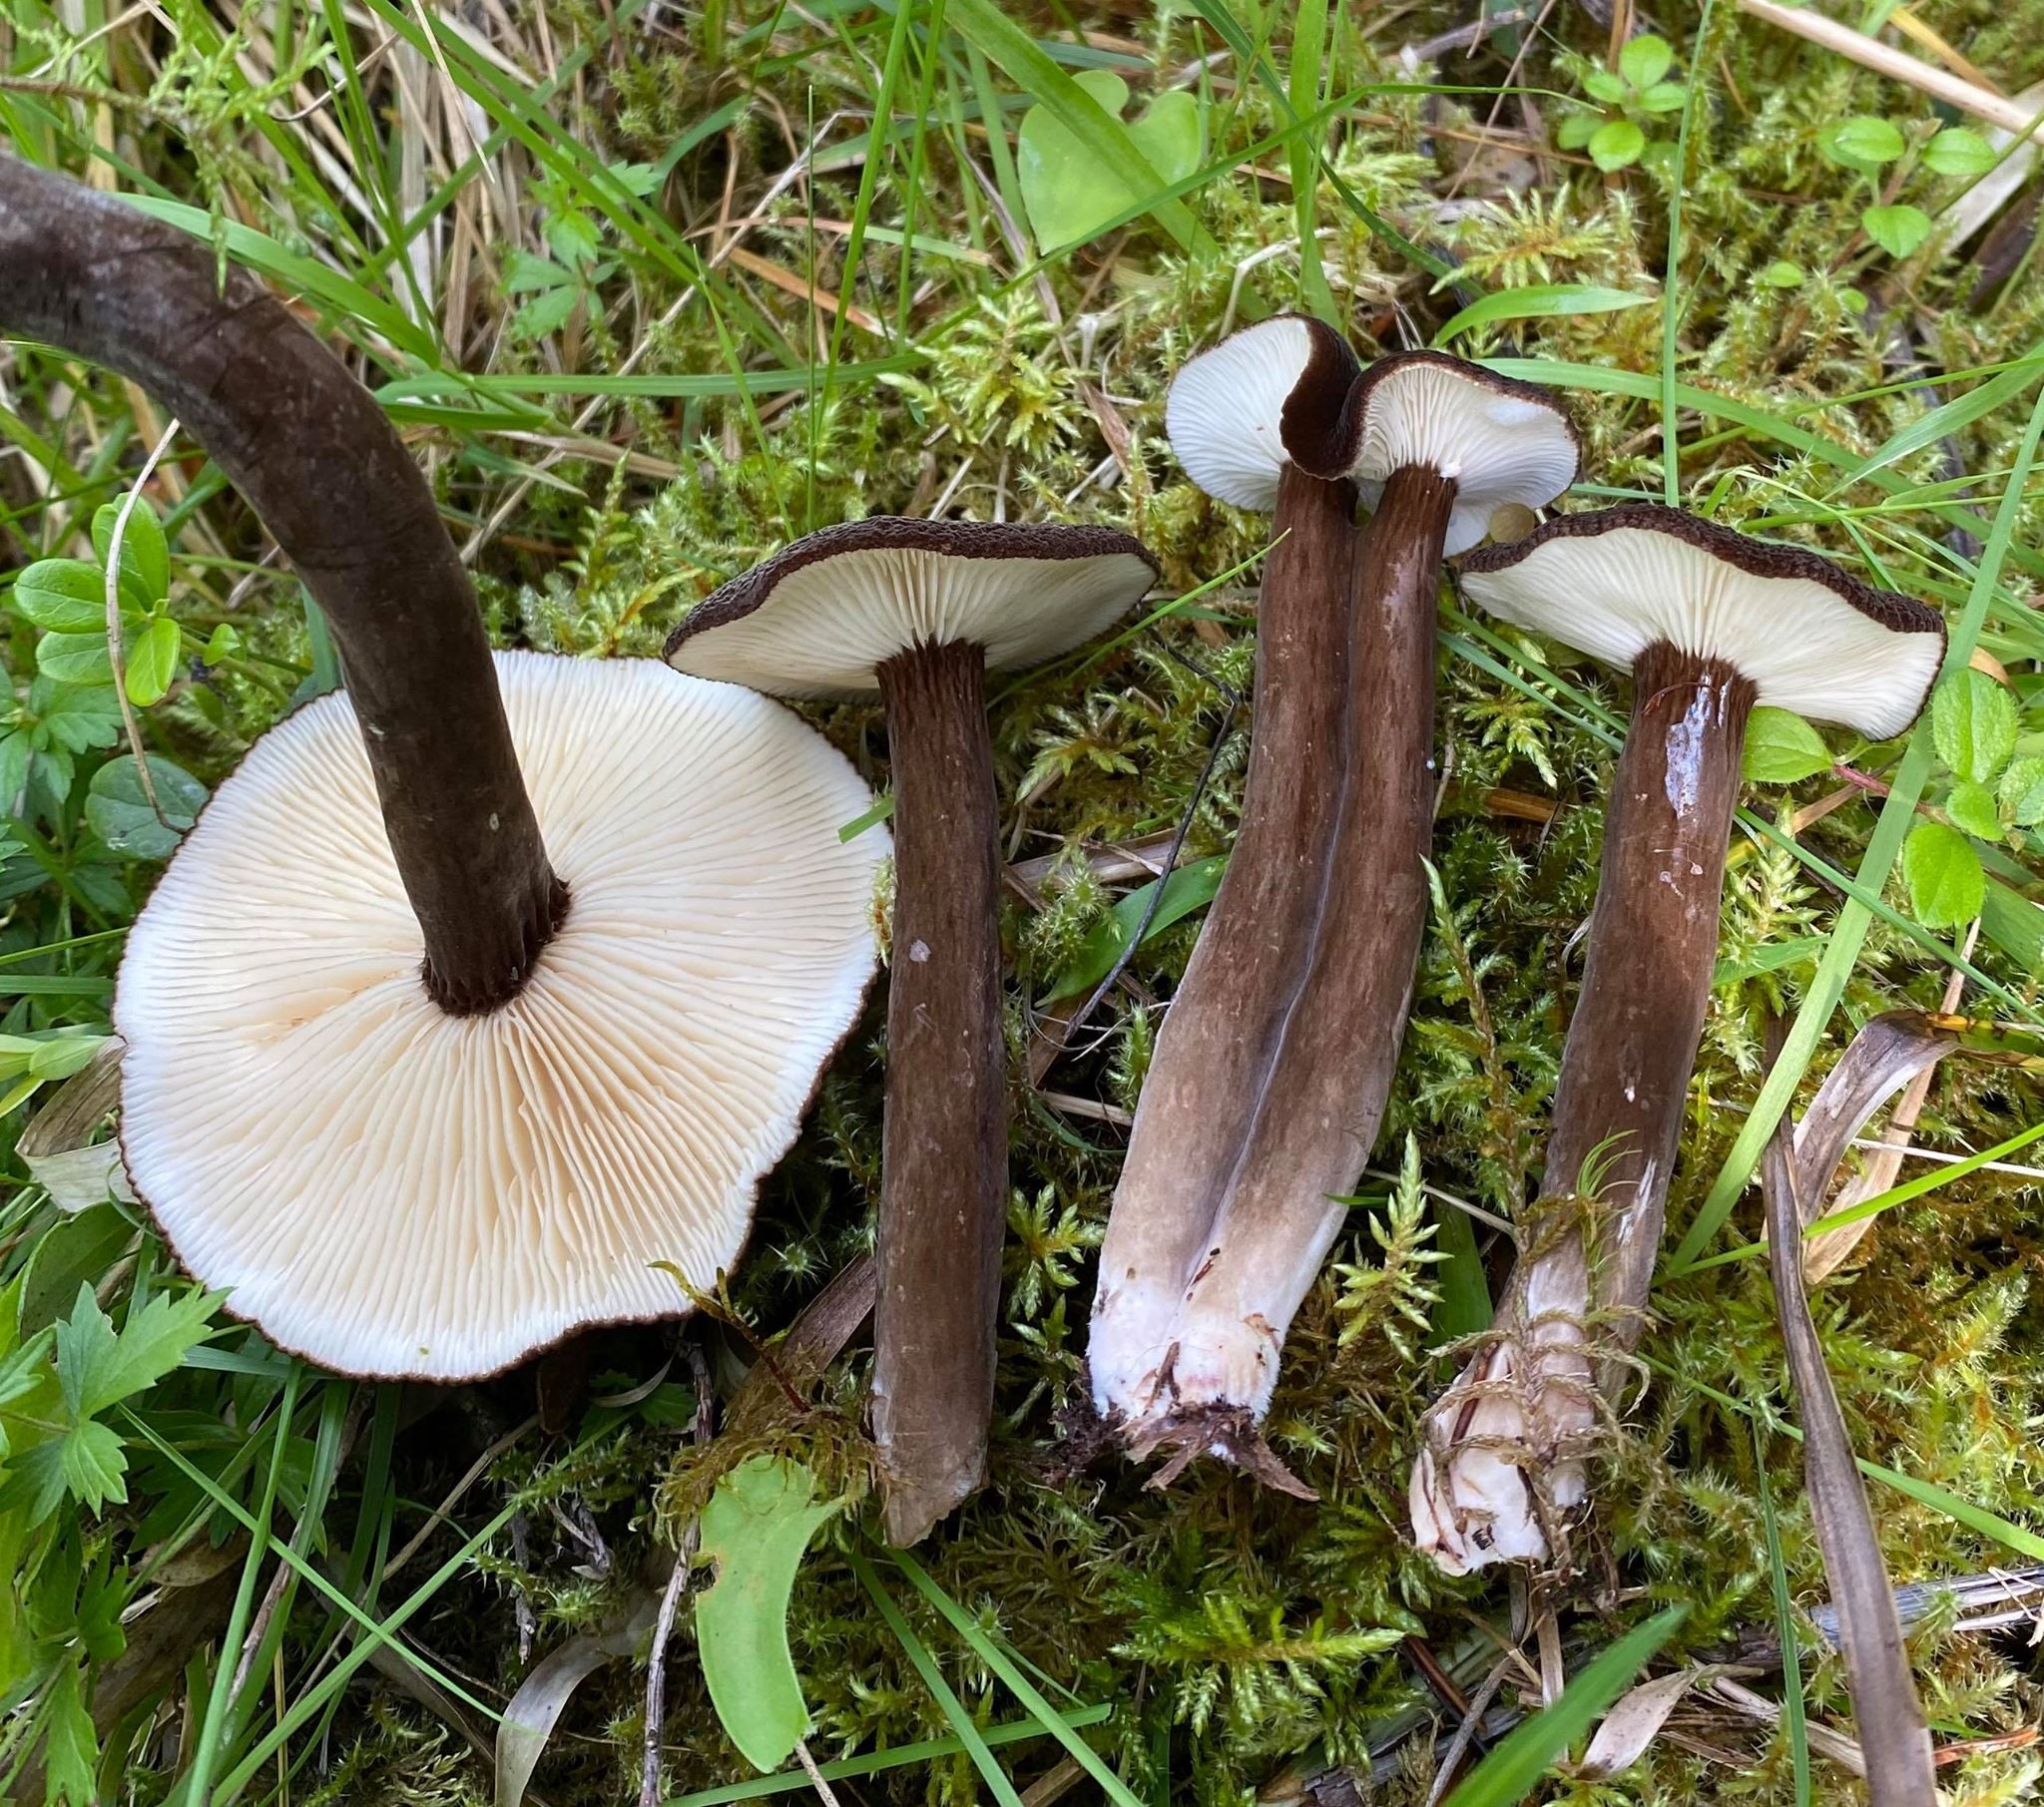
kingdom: Fungi
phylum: Basidiomycota
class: Agaricomycetes
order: Russulales
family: Russulaceae
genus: Lactarius
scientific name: Lactarius lignyotus
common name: Velvet milkcap
